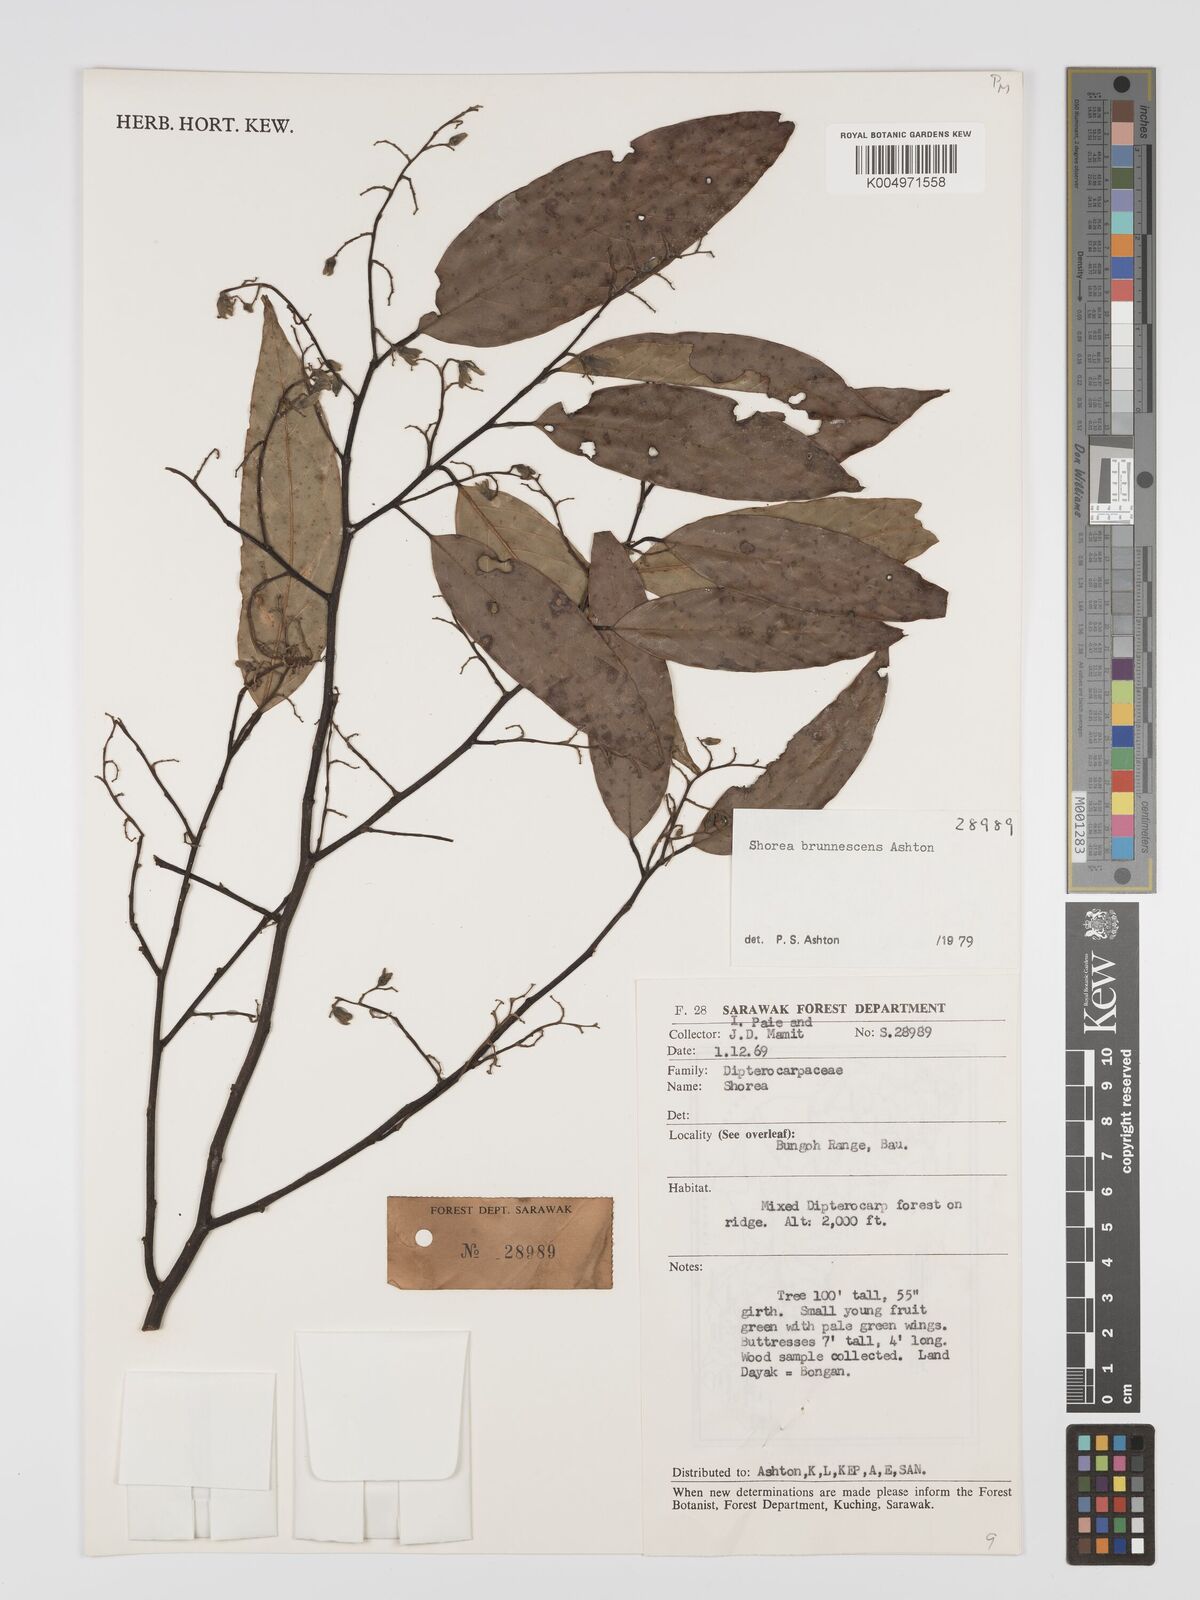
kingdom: Plantae
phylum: Tracheophyta
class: Magnoliopsida
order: Malvales
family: Dipterocarpaceae
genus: Shorea
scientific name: Shorea brunnescens
